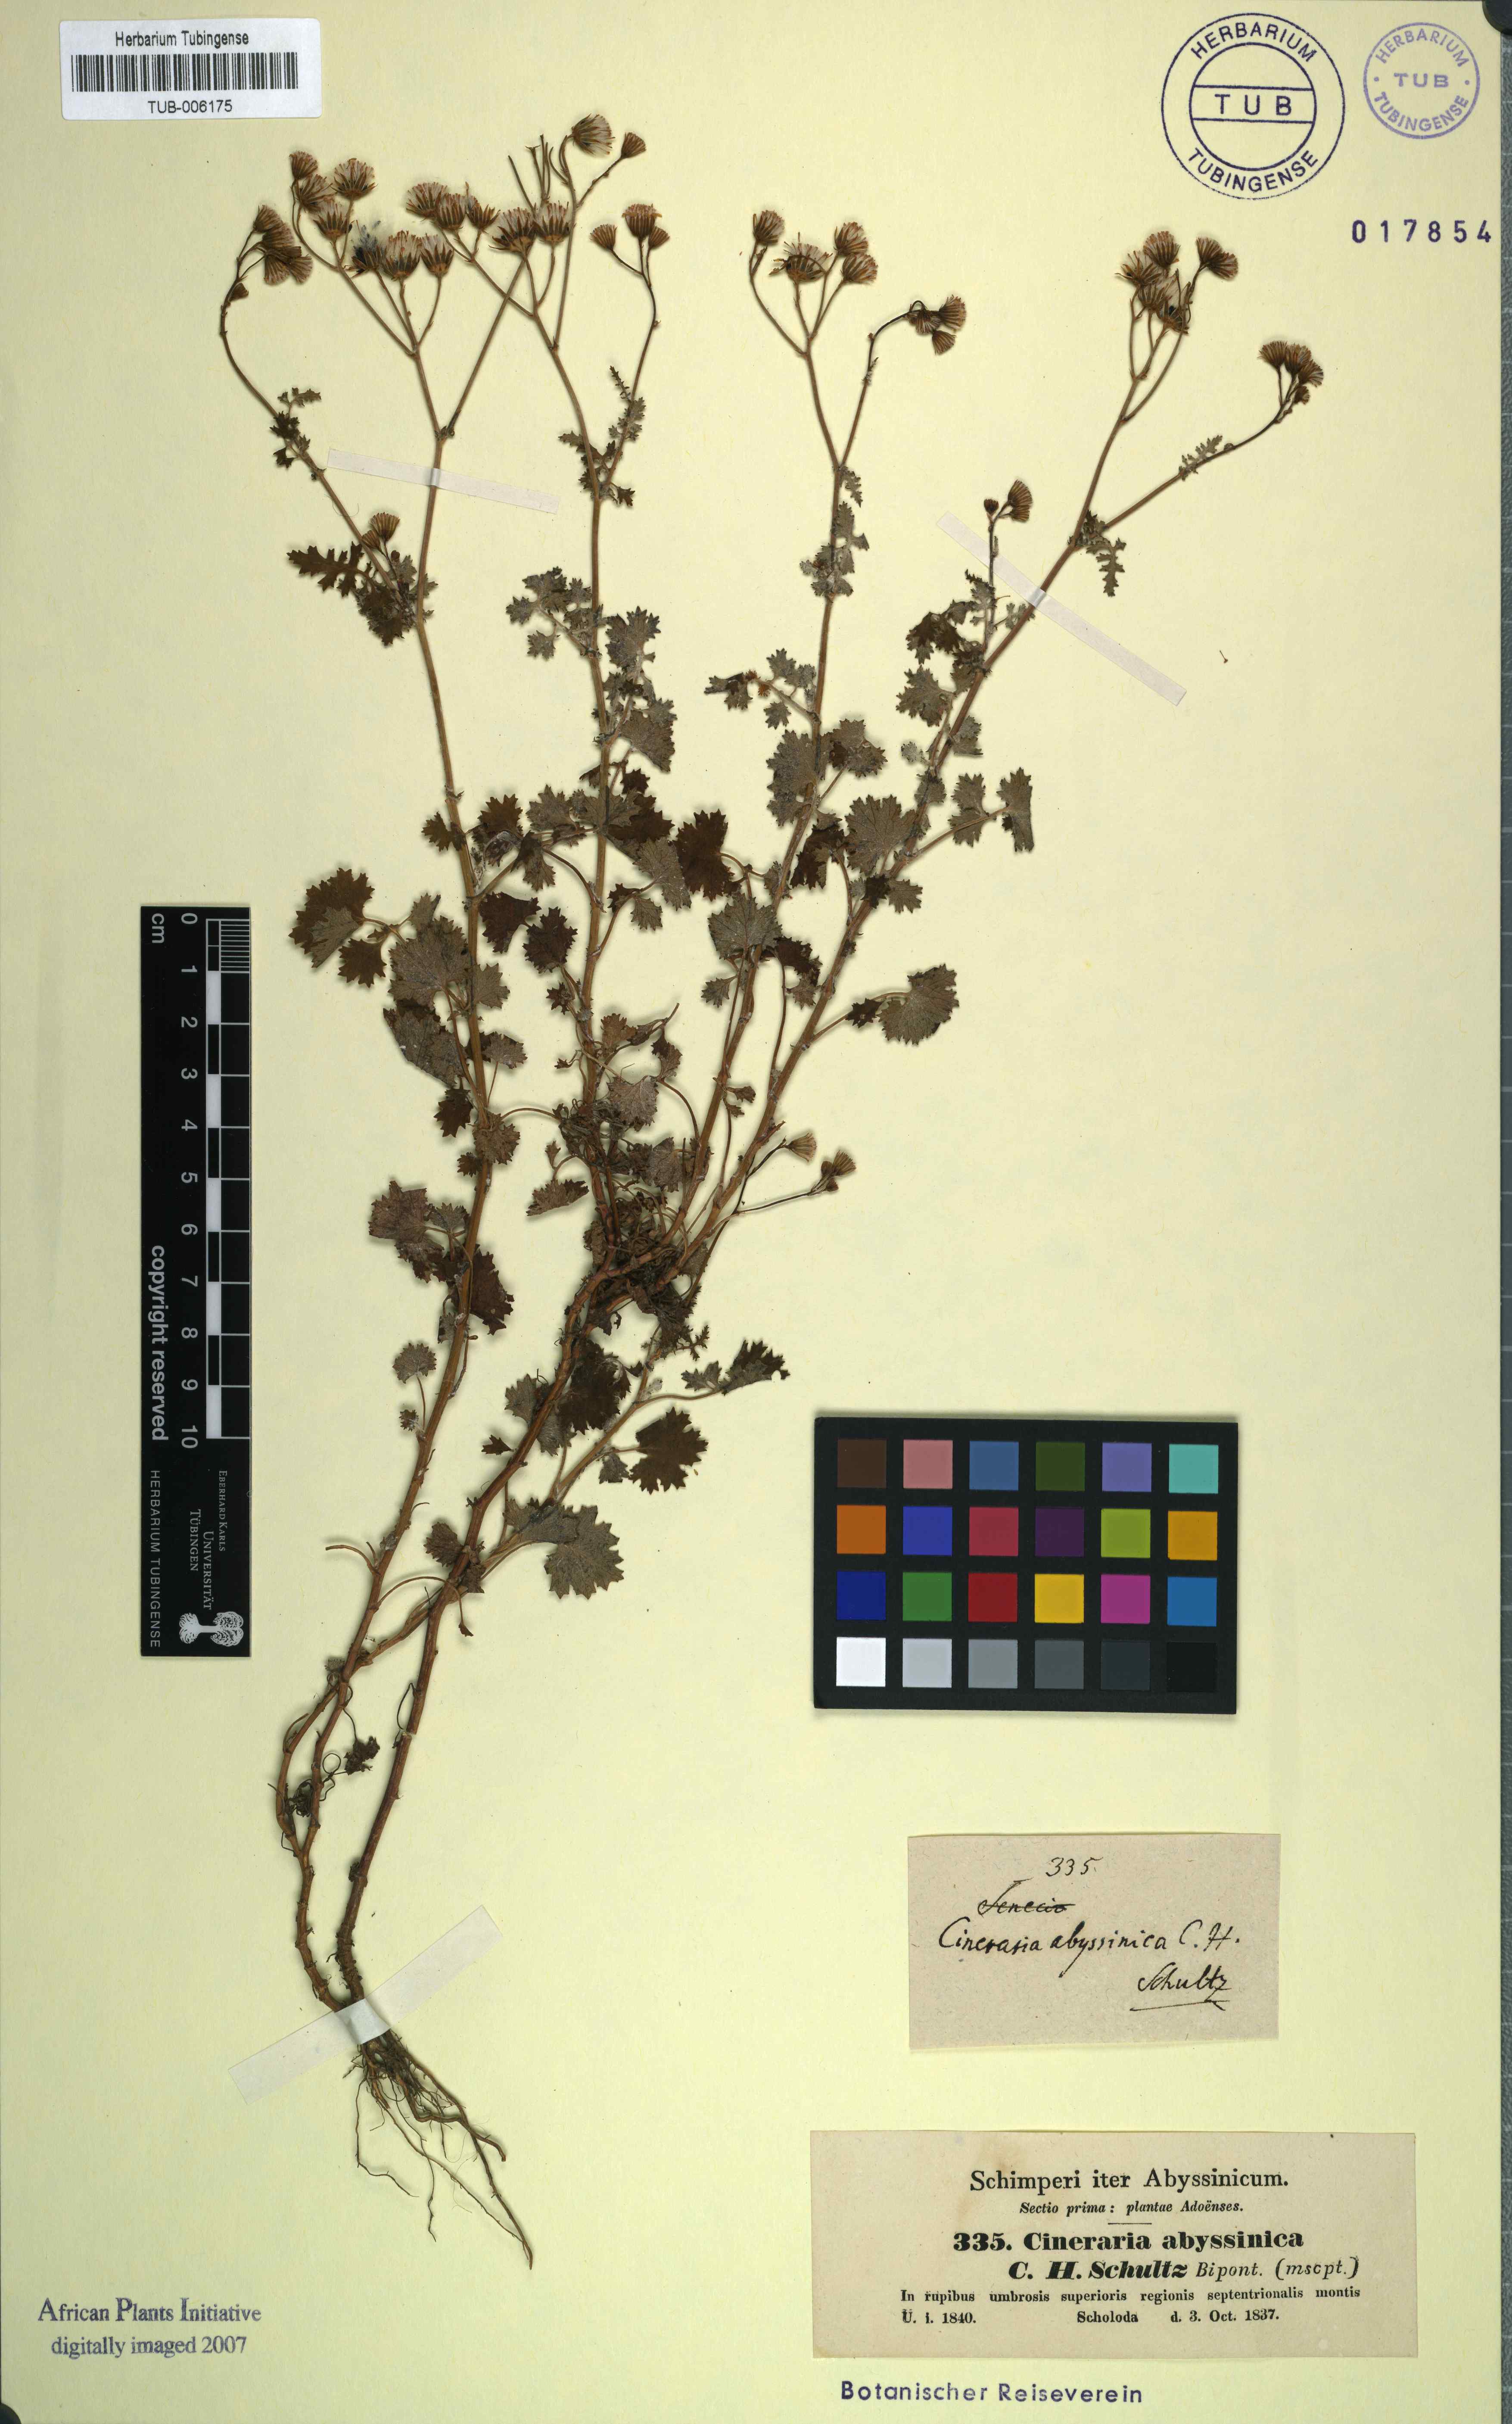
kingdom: Plantae
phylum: Tracheophyta
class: Magnoliopsida
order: Asterales
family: Asteraceae
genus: Cineraria
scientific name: Cineraria abyssinica
